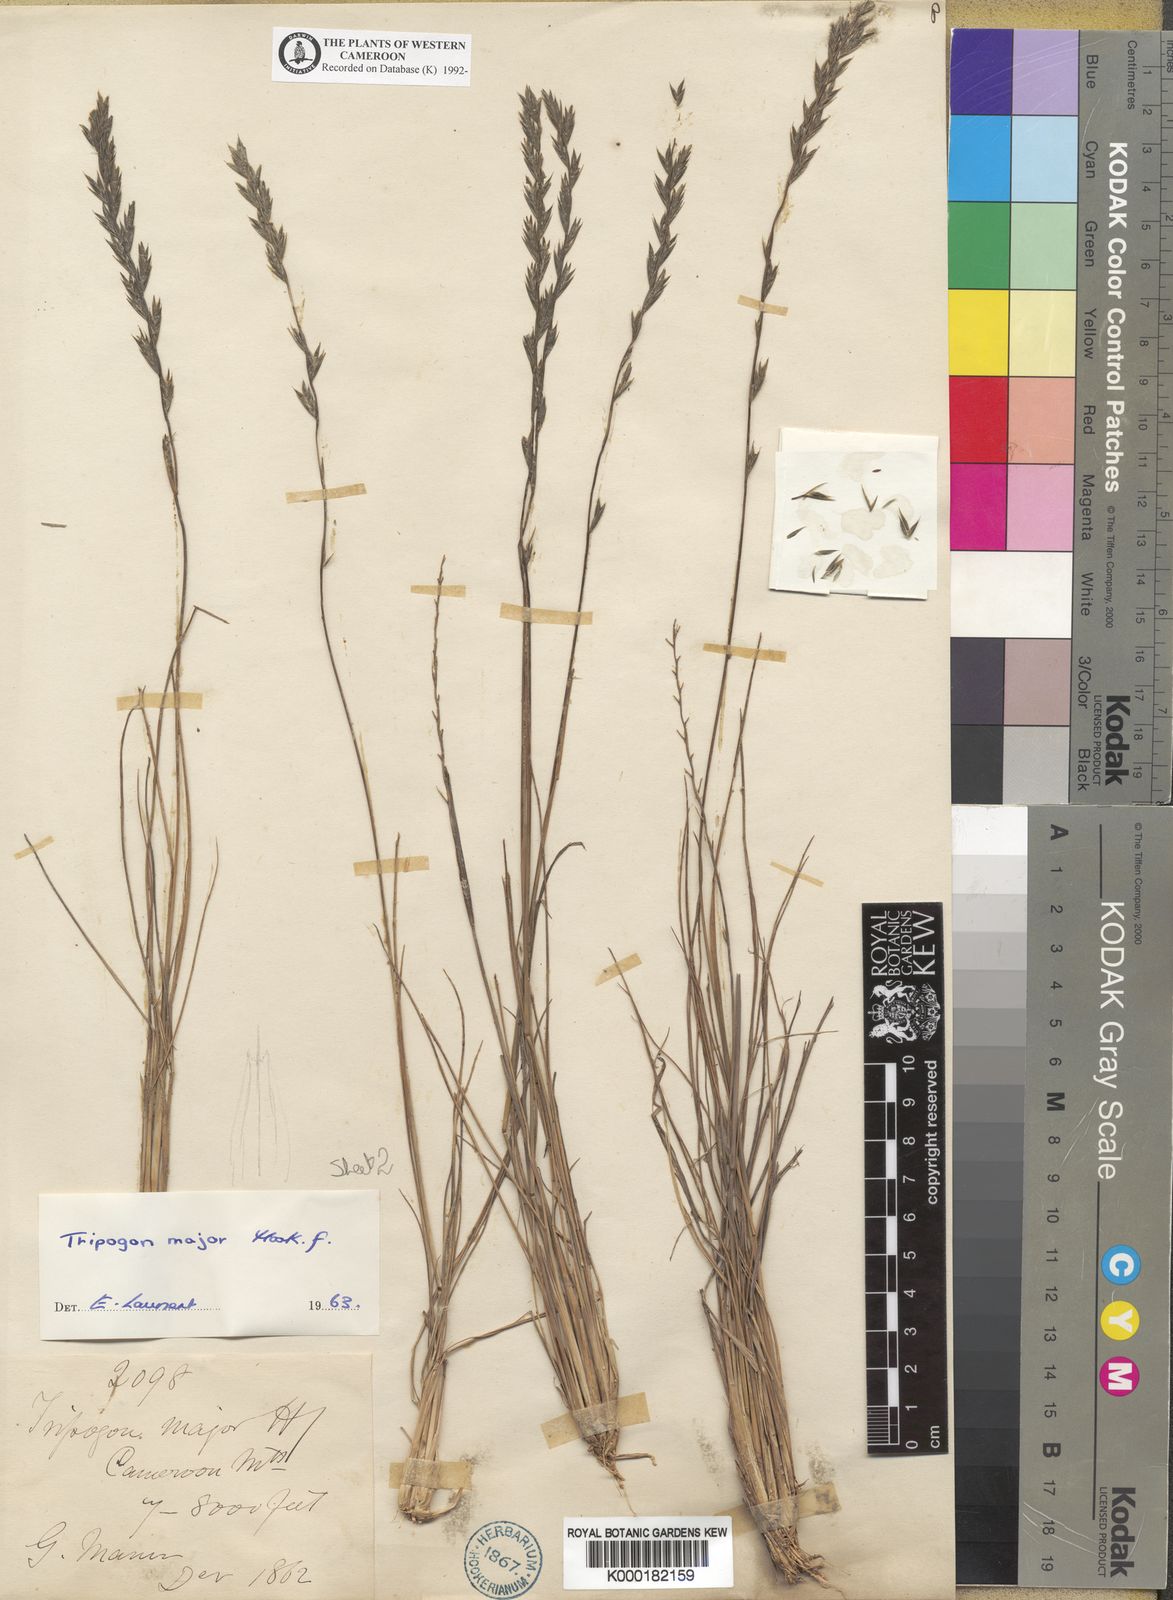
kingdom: Plantae
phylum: Tracheophyta
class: Liliopsida
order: Poales
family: Poaceae
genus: Tripogon
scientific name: Tripogon major
